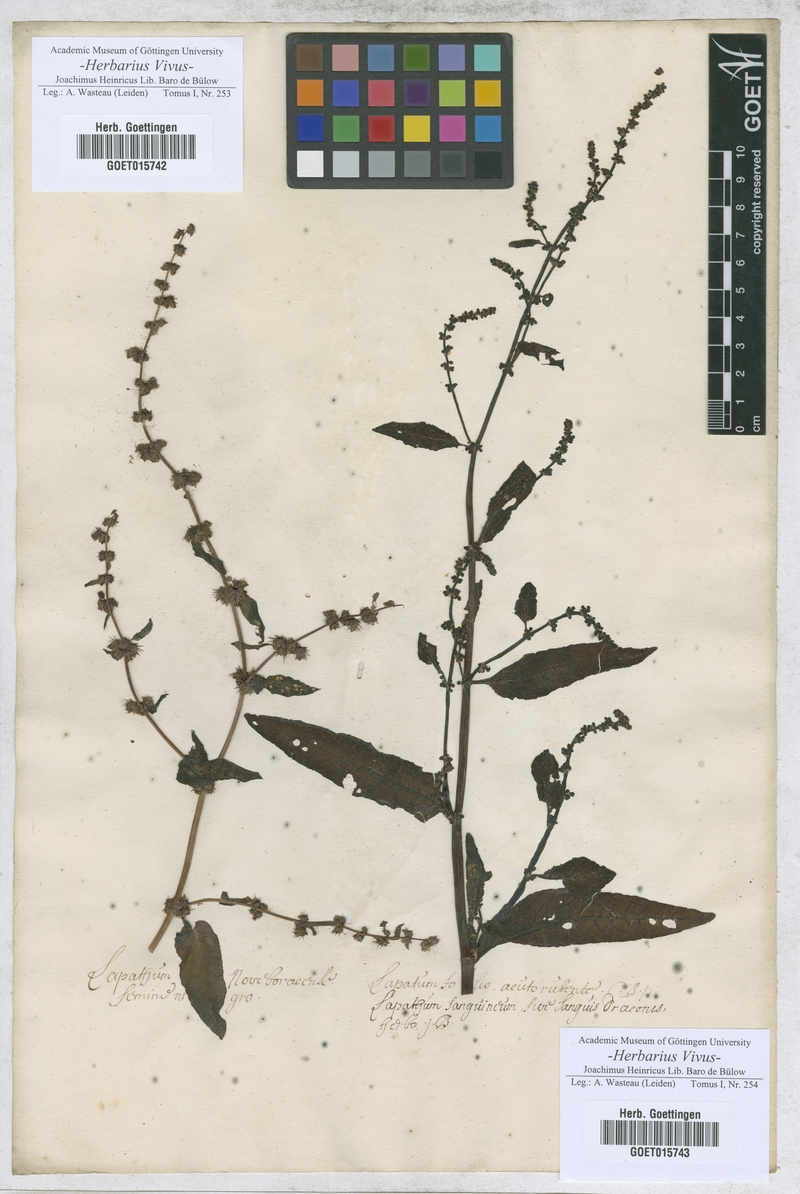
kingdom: Plantae
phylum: Tracheophyta
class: Magnoliopsida
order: Caryophyllales
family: Polygonaceae
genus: Lapathum
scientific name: Lapathum
